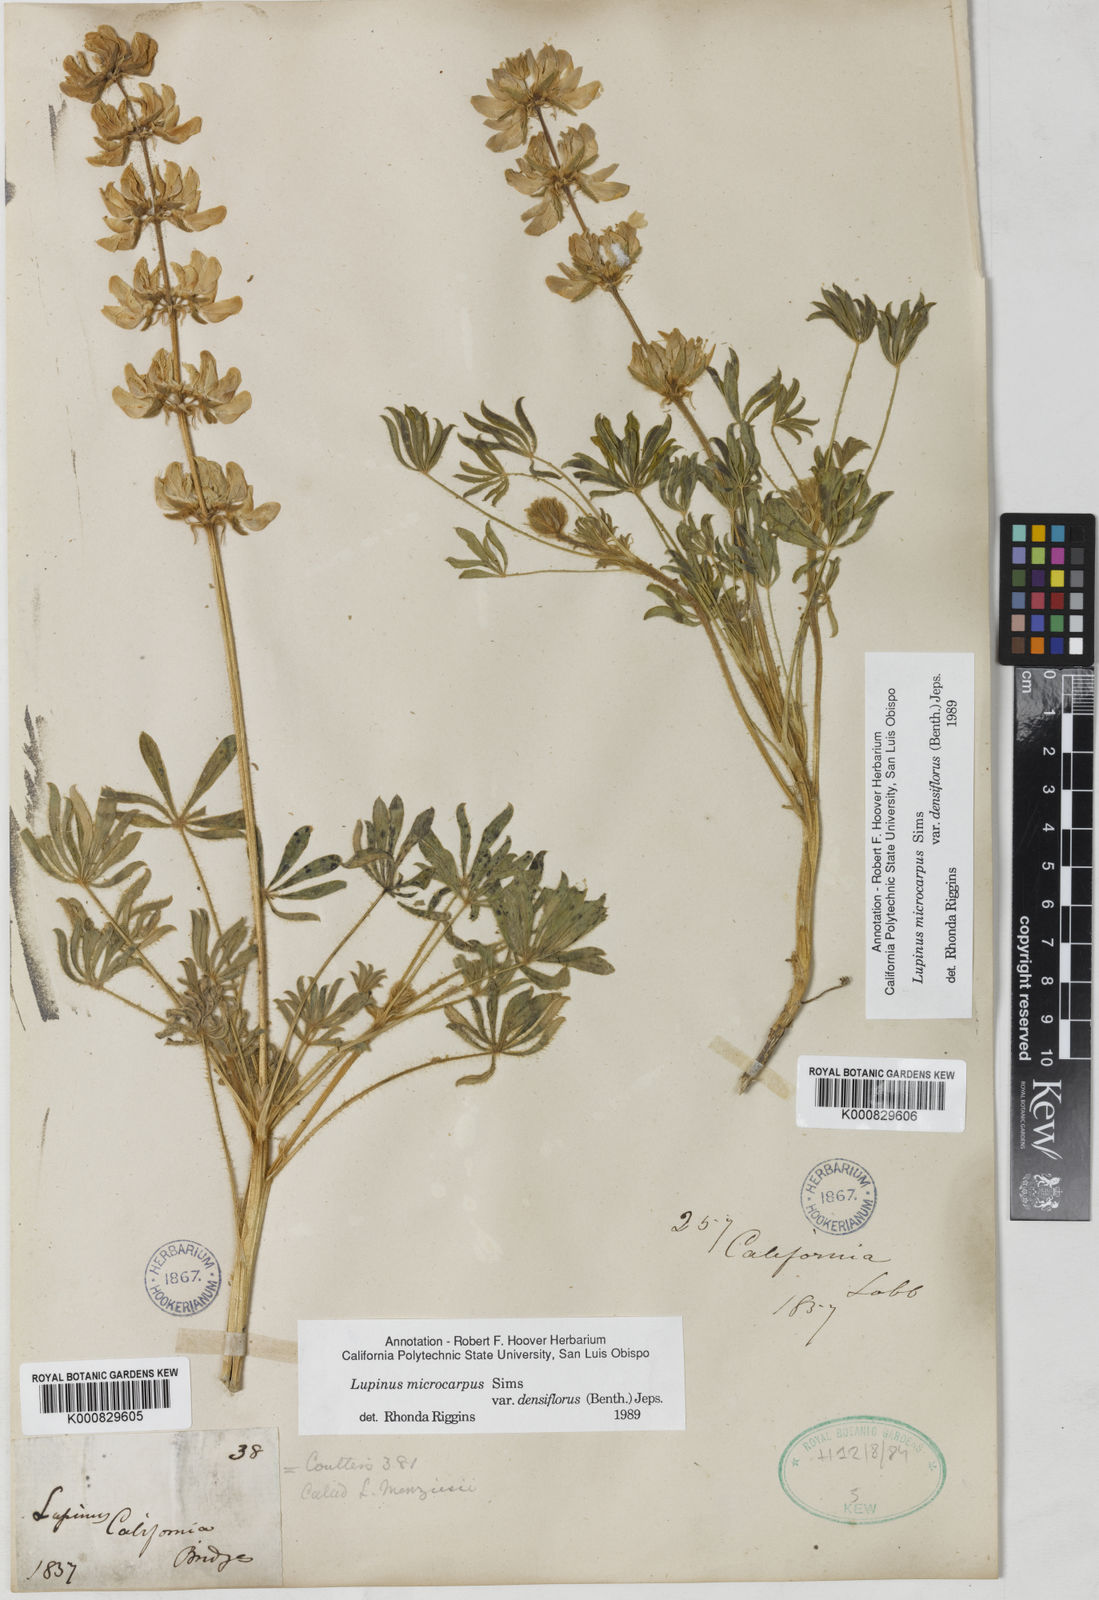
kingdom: Plantae
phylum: Tracheophyta
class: Magnoliopsida
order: Fabales
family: Fabaceae
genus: Lupinus
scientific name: Lupinus densiflorus
